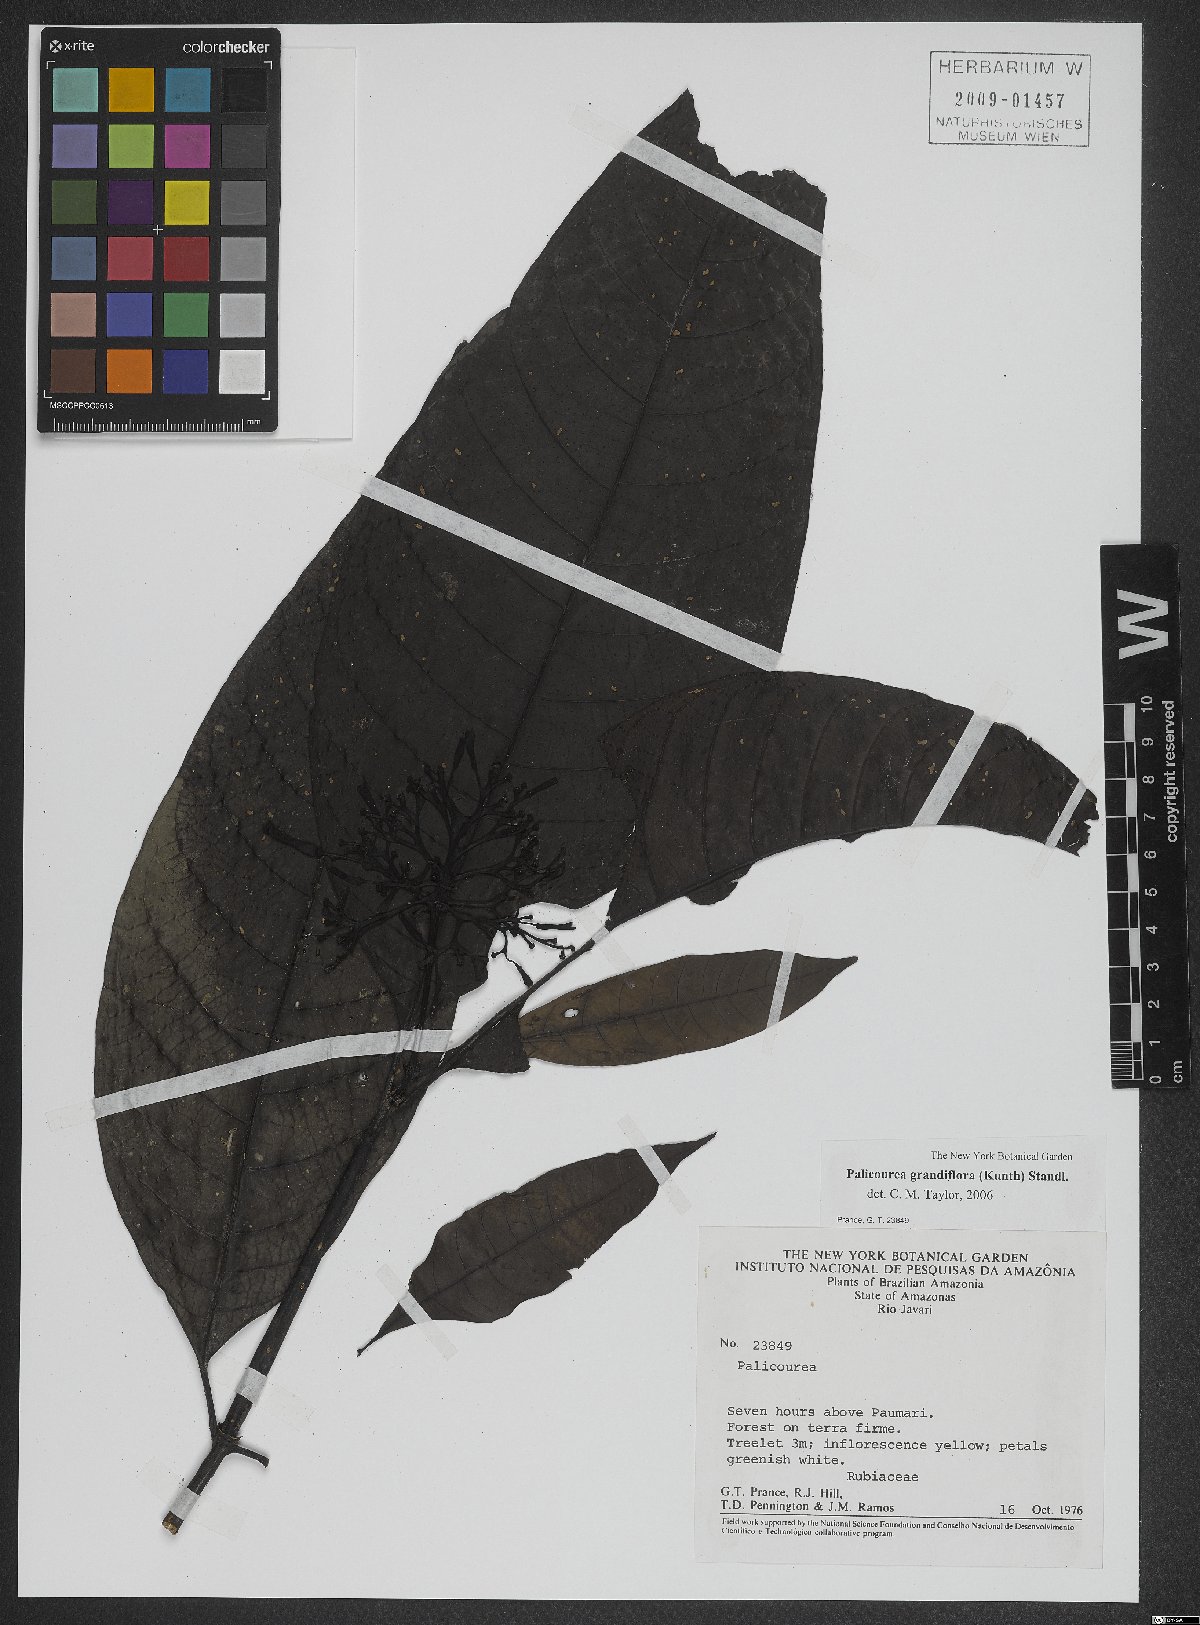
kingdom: Plantae
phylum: Tracheophyta
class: Magnoliopsida
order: Gentianales
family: Rubiaceae
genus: Palicourea
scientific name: Palicourea grandifolia
